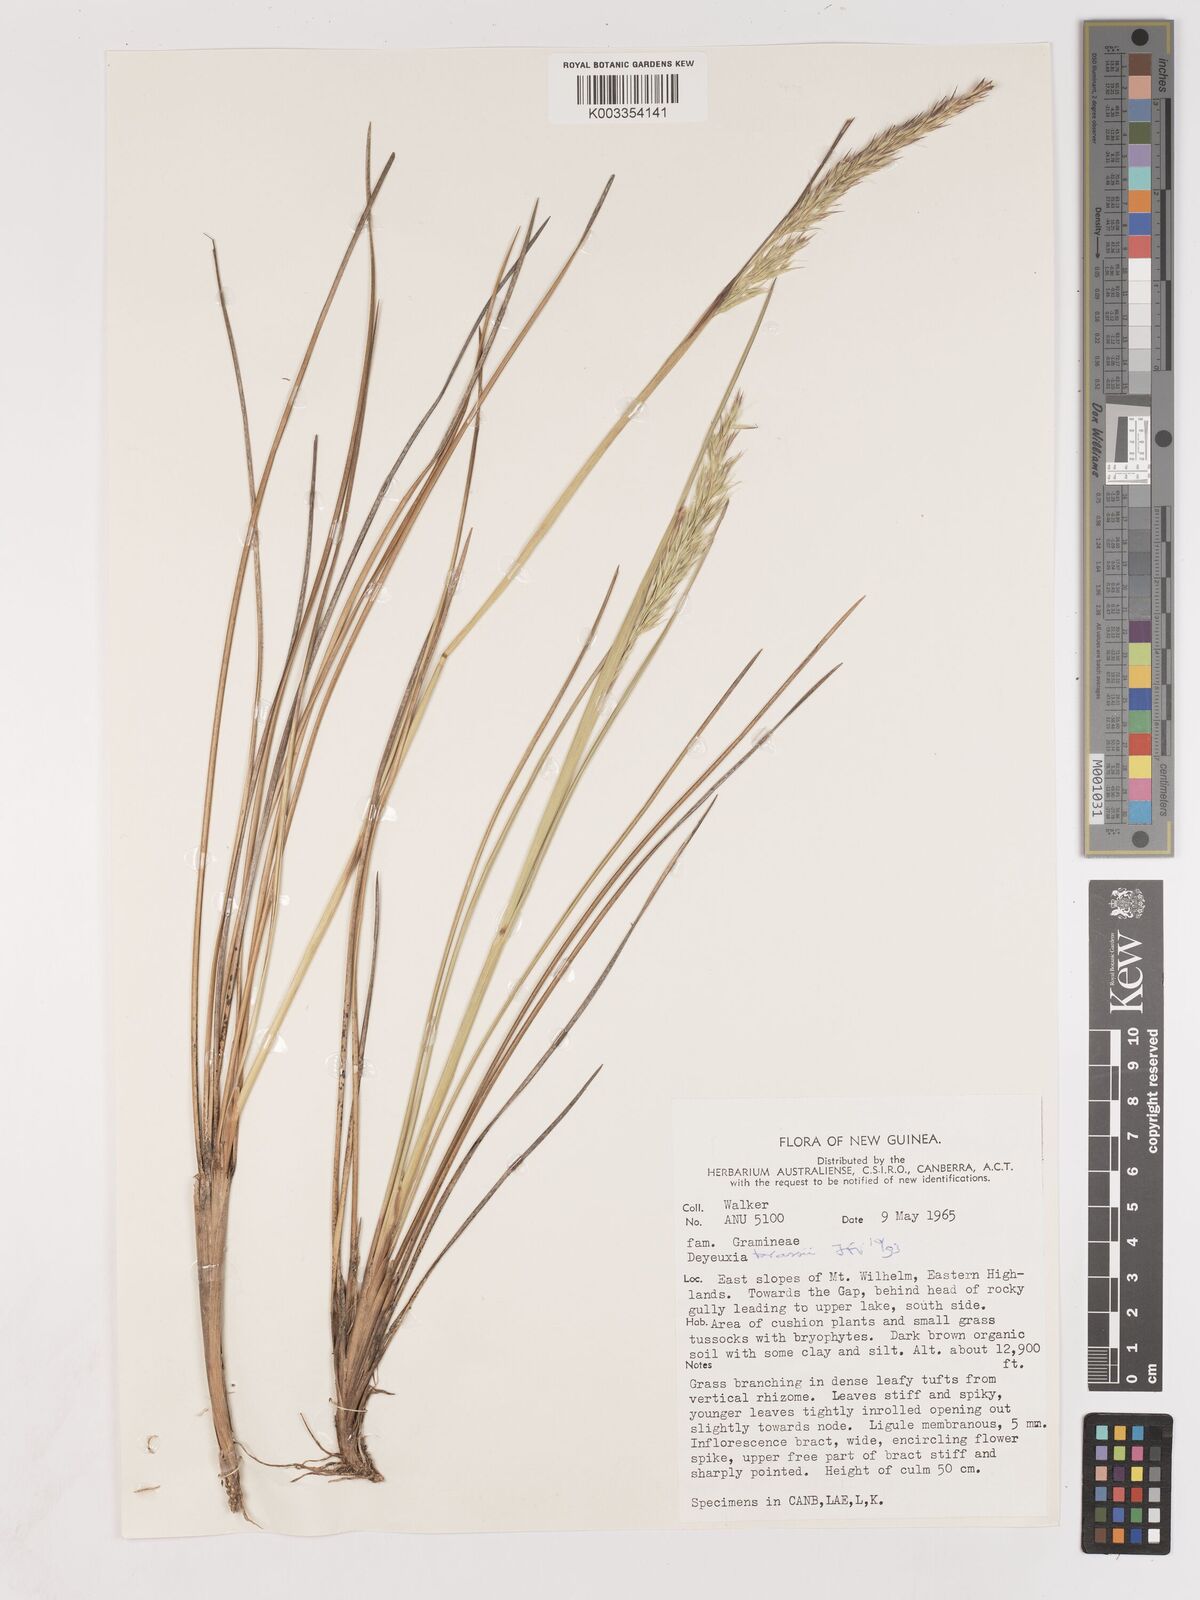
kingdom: Plantae
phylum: Tracheophyta
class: Liliopsida
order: Poales
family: Poaceae
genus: Calamagrostis
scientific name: Calamagrostis brassii
